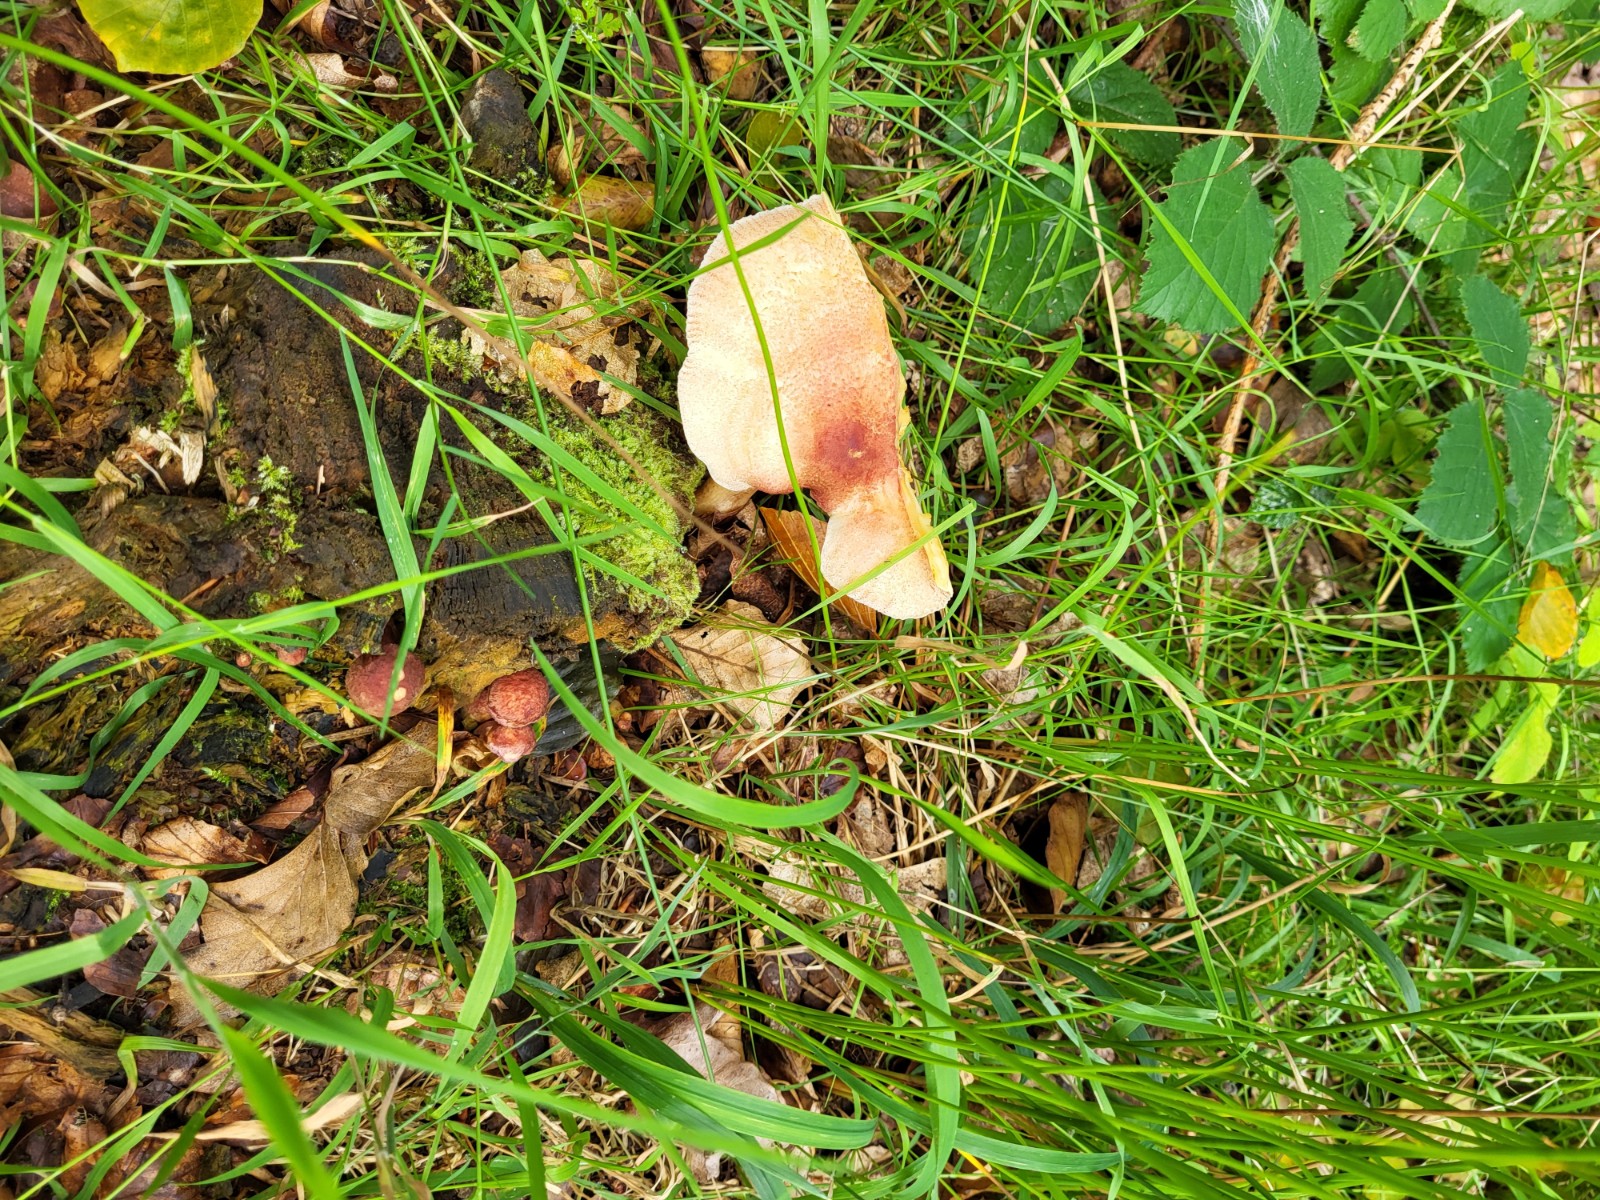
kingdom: Fungi
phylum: Basidiomycota
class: Agaricomycetes
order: Agaricales
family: Tricholomataceae
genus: Tricholomopsis
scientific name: Tricholomopsis rutilans
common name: purpur-væbnerhat
